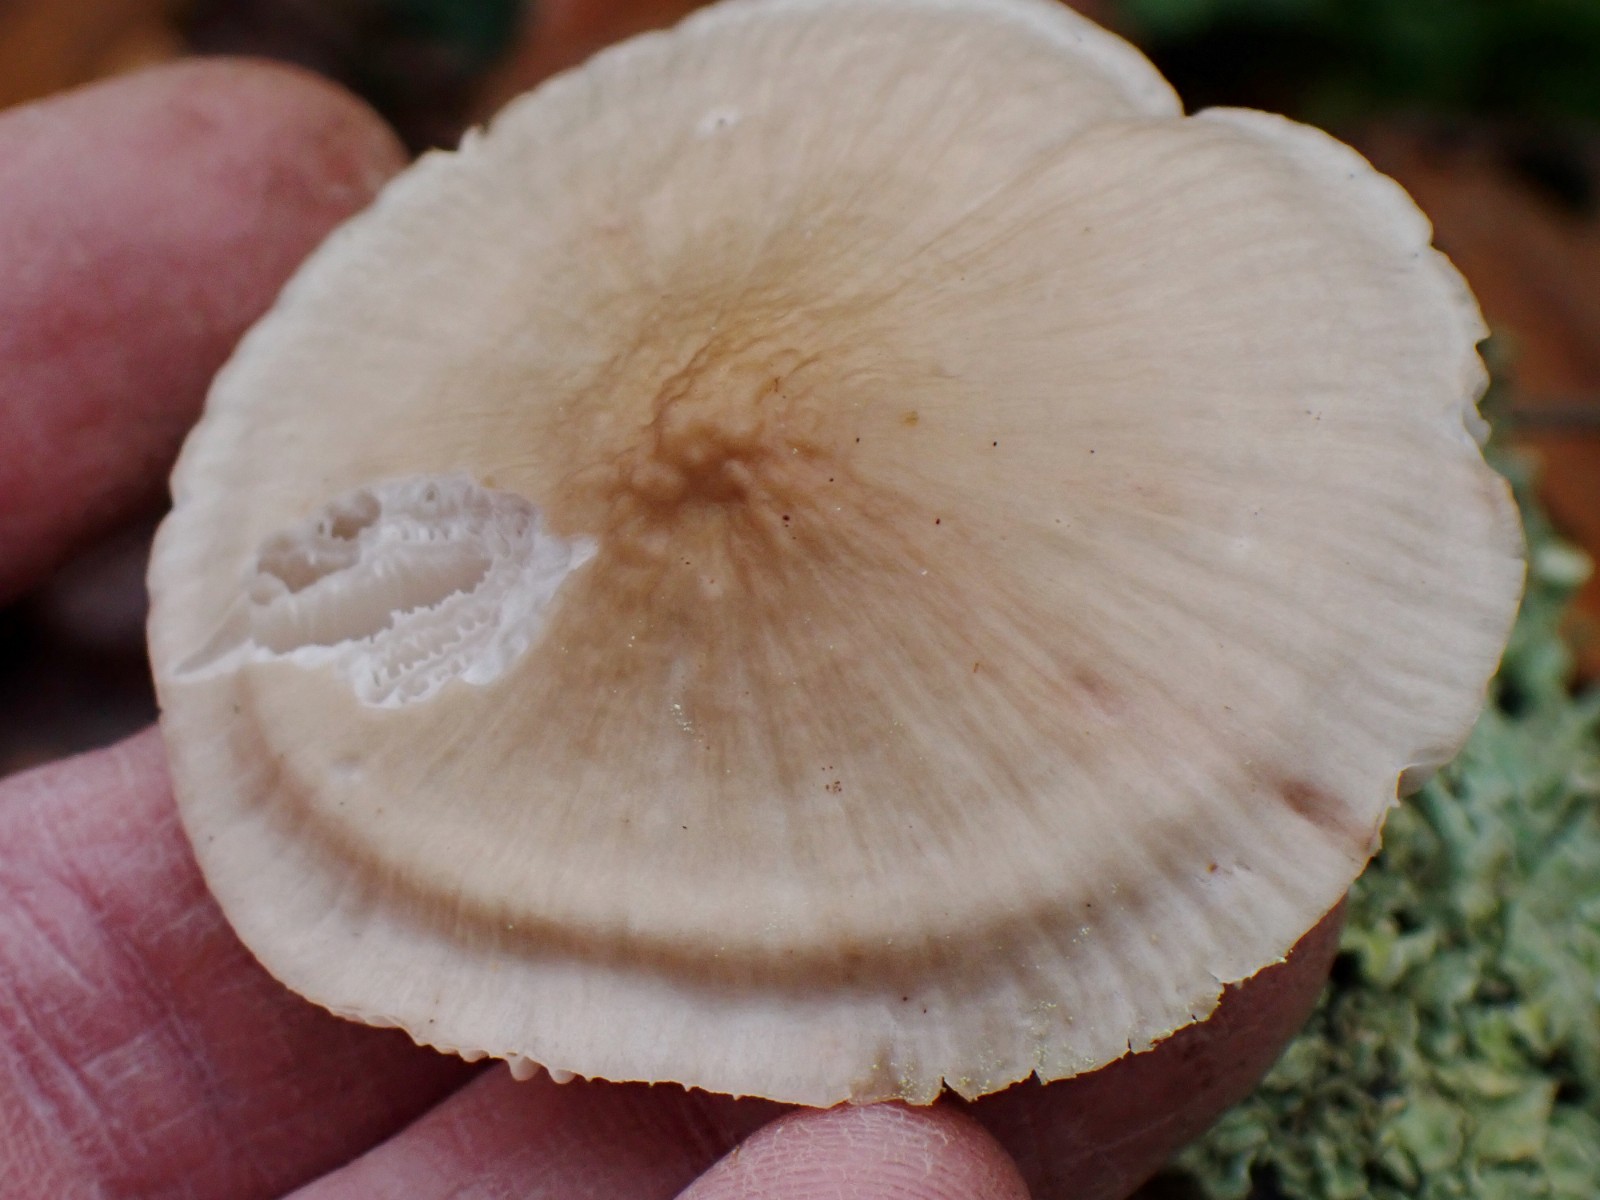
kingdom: Fungi
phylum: Basidiomycota
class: Agaricomycetes
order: Agaricales
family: Mycenaceae
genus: Mycena
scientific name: Mycena
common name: huesvamp
